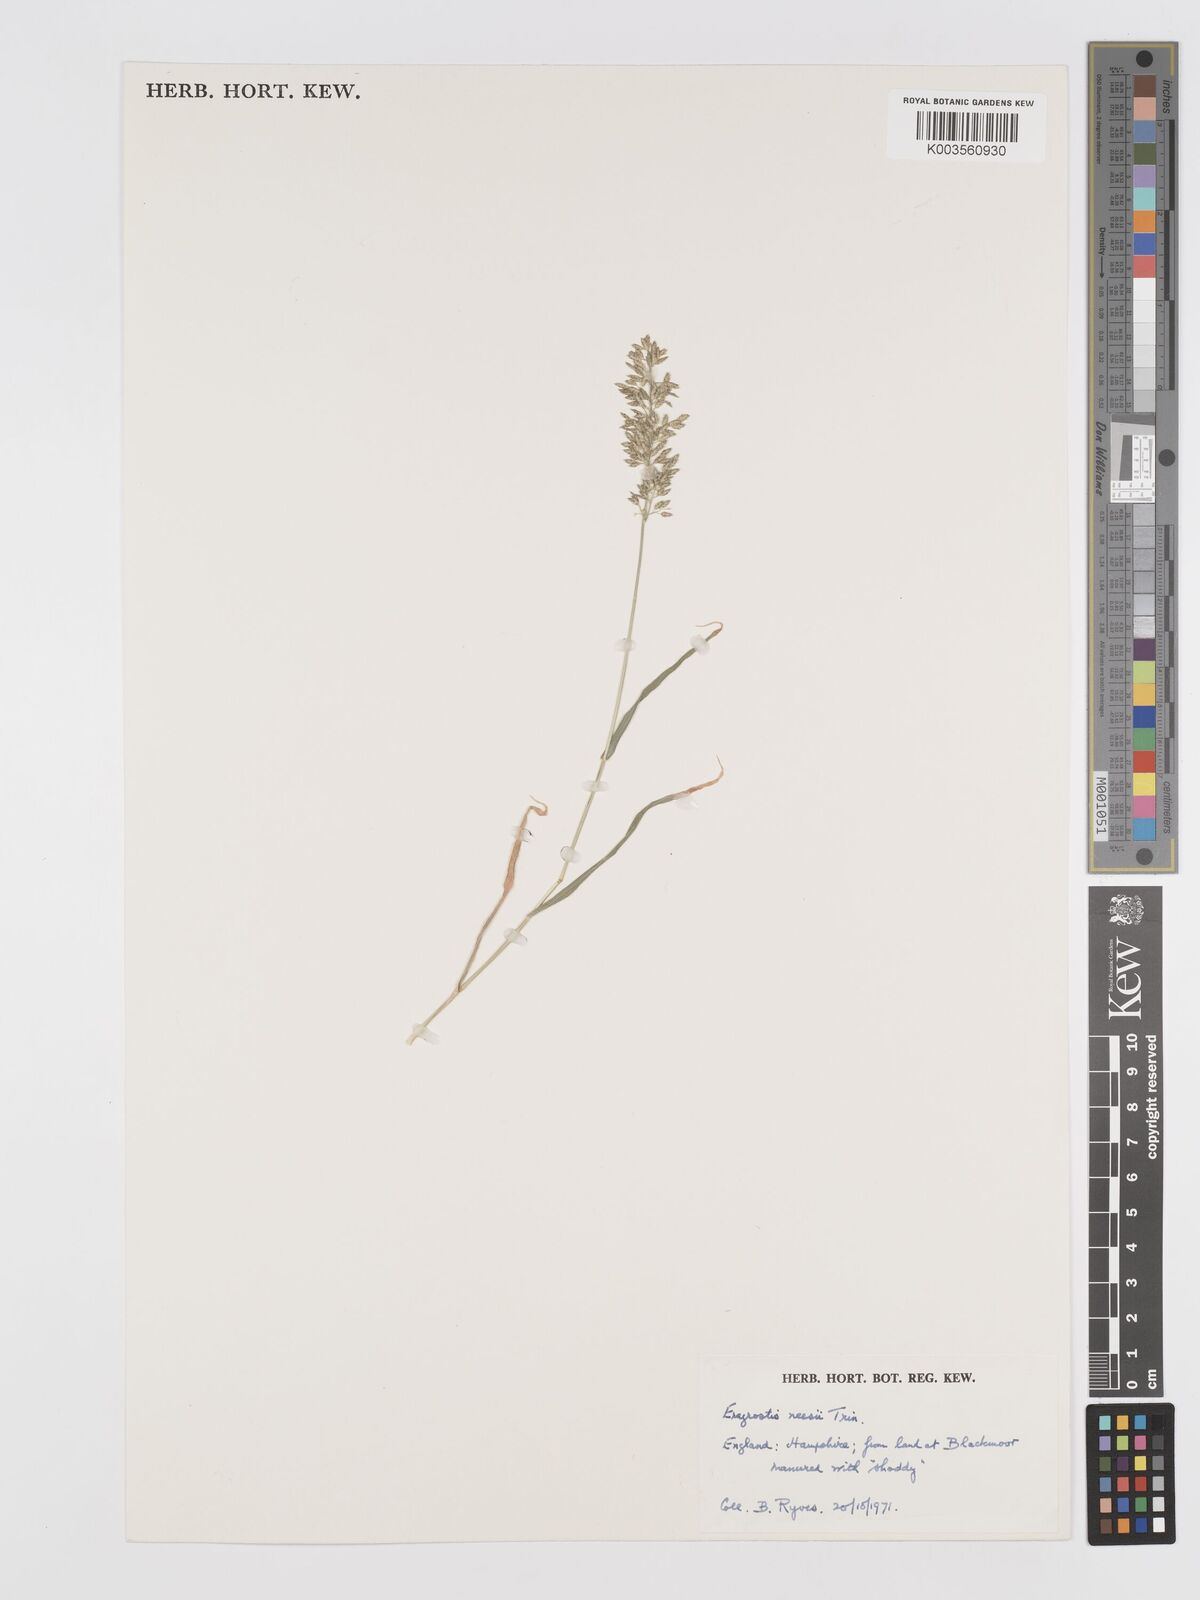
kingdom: Plantae
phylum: Tracheophyta
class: Liliopsida
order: Poales
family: Poaceae
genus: Eragrostis
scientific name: Eragrostis neesii
